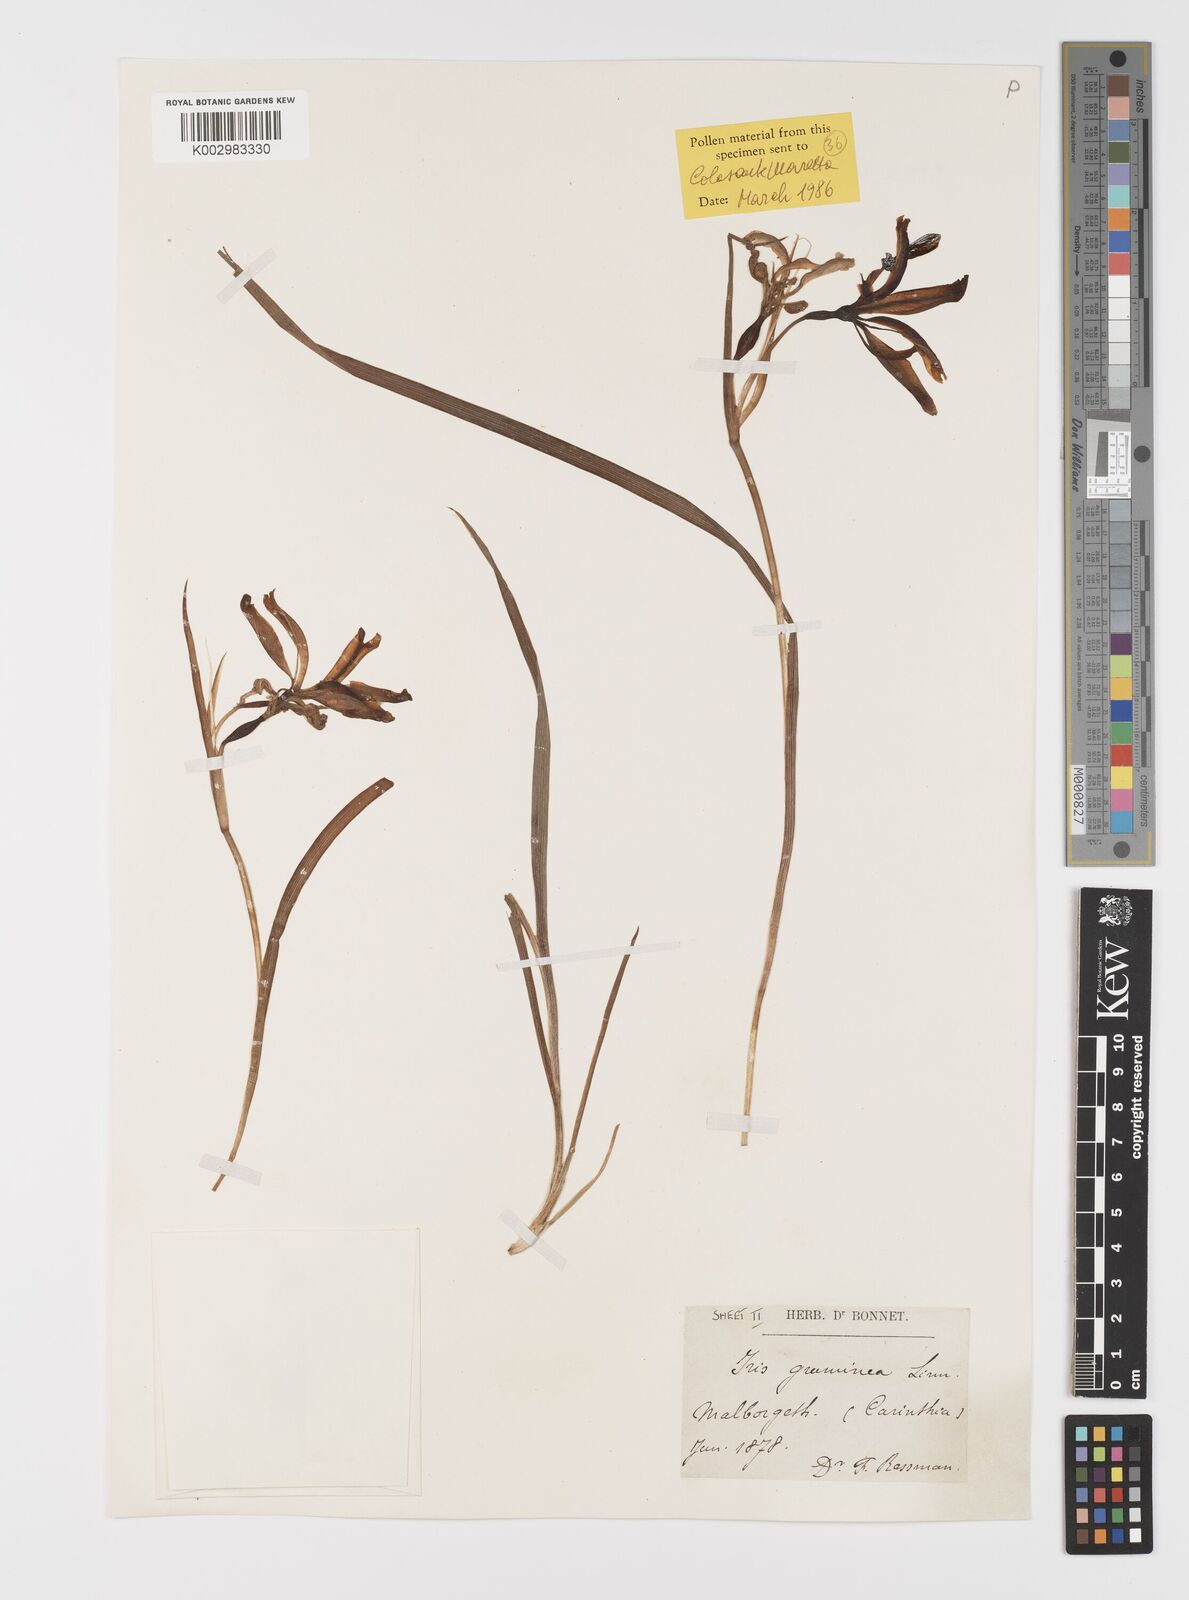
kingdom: Plantae
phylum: Tracheophyta
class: Liliopsida
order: Asparagales
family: Iridaceae
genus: Iris
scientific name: Iris graminea
